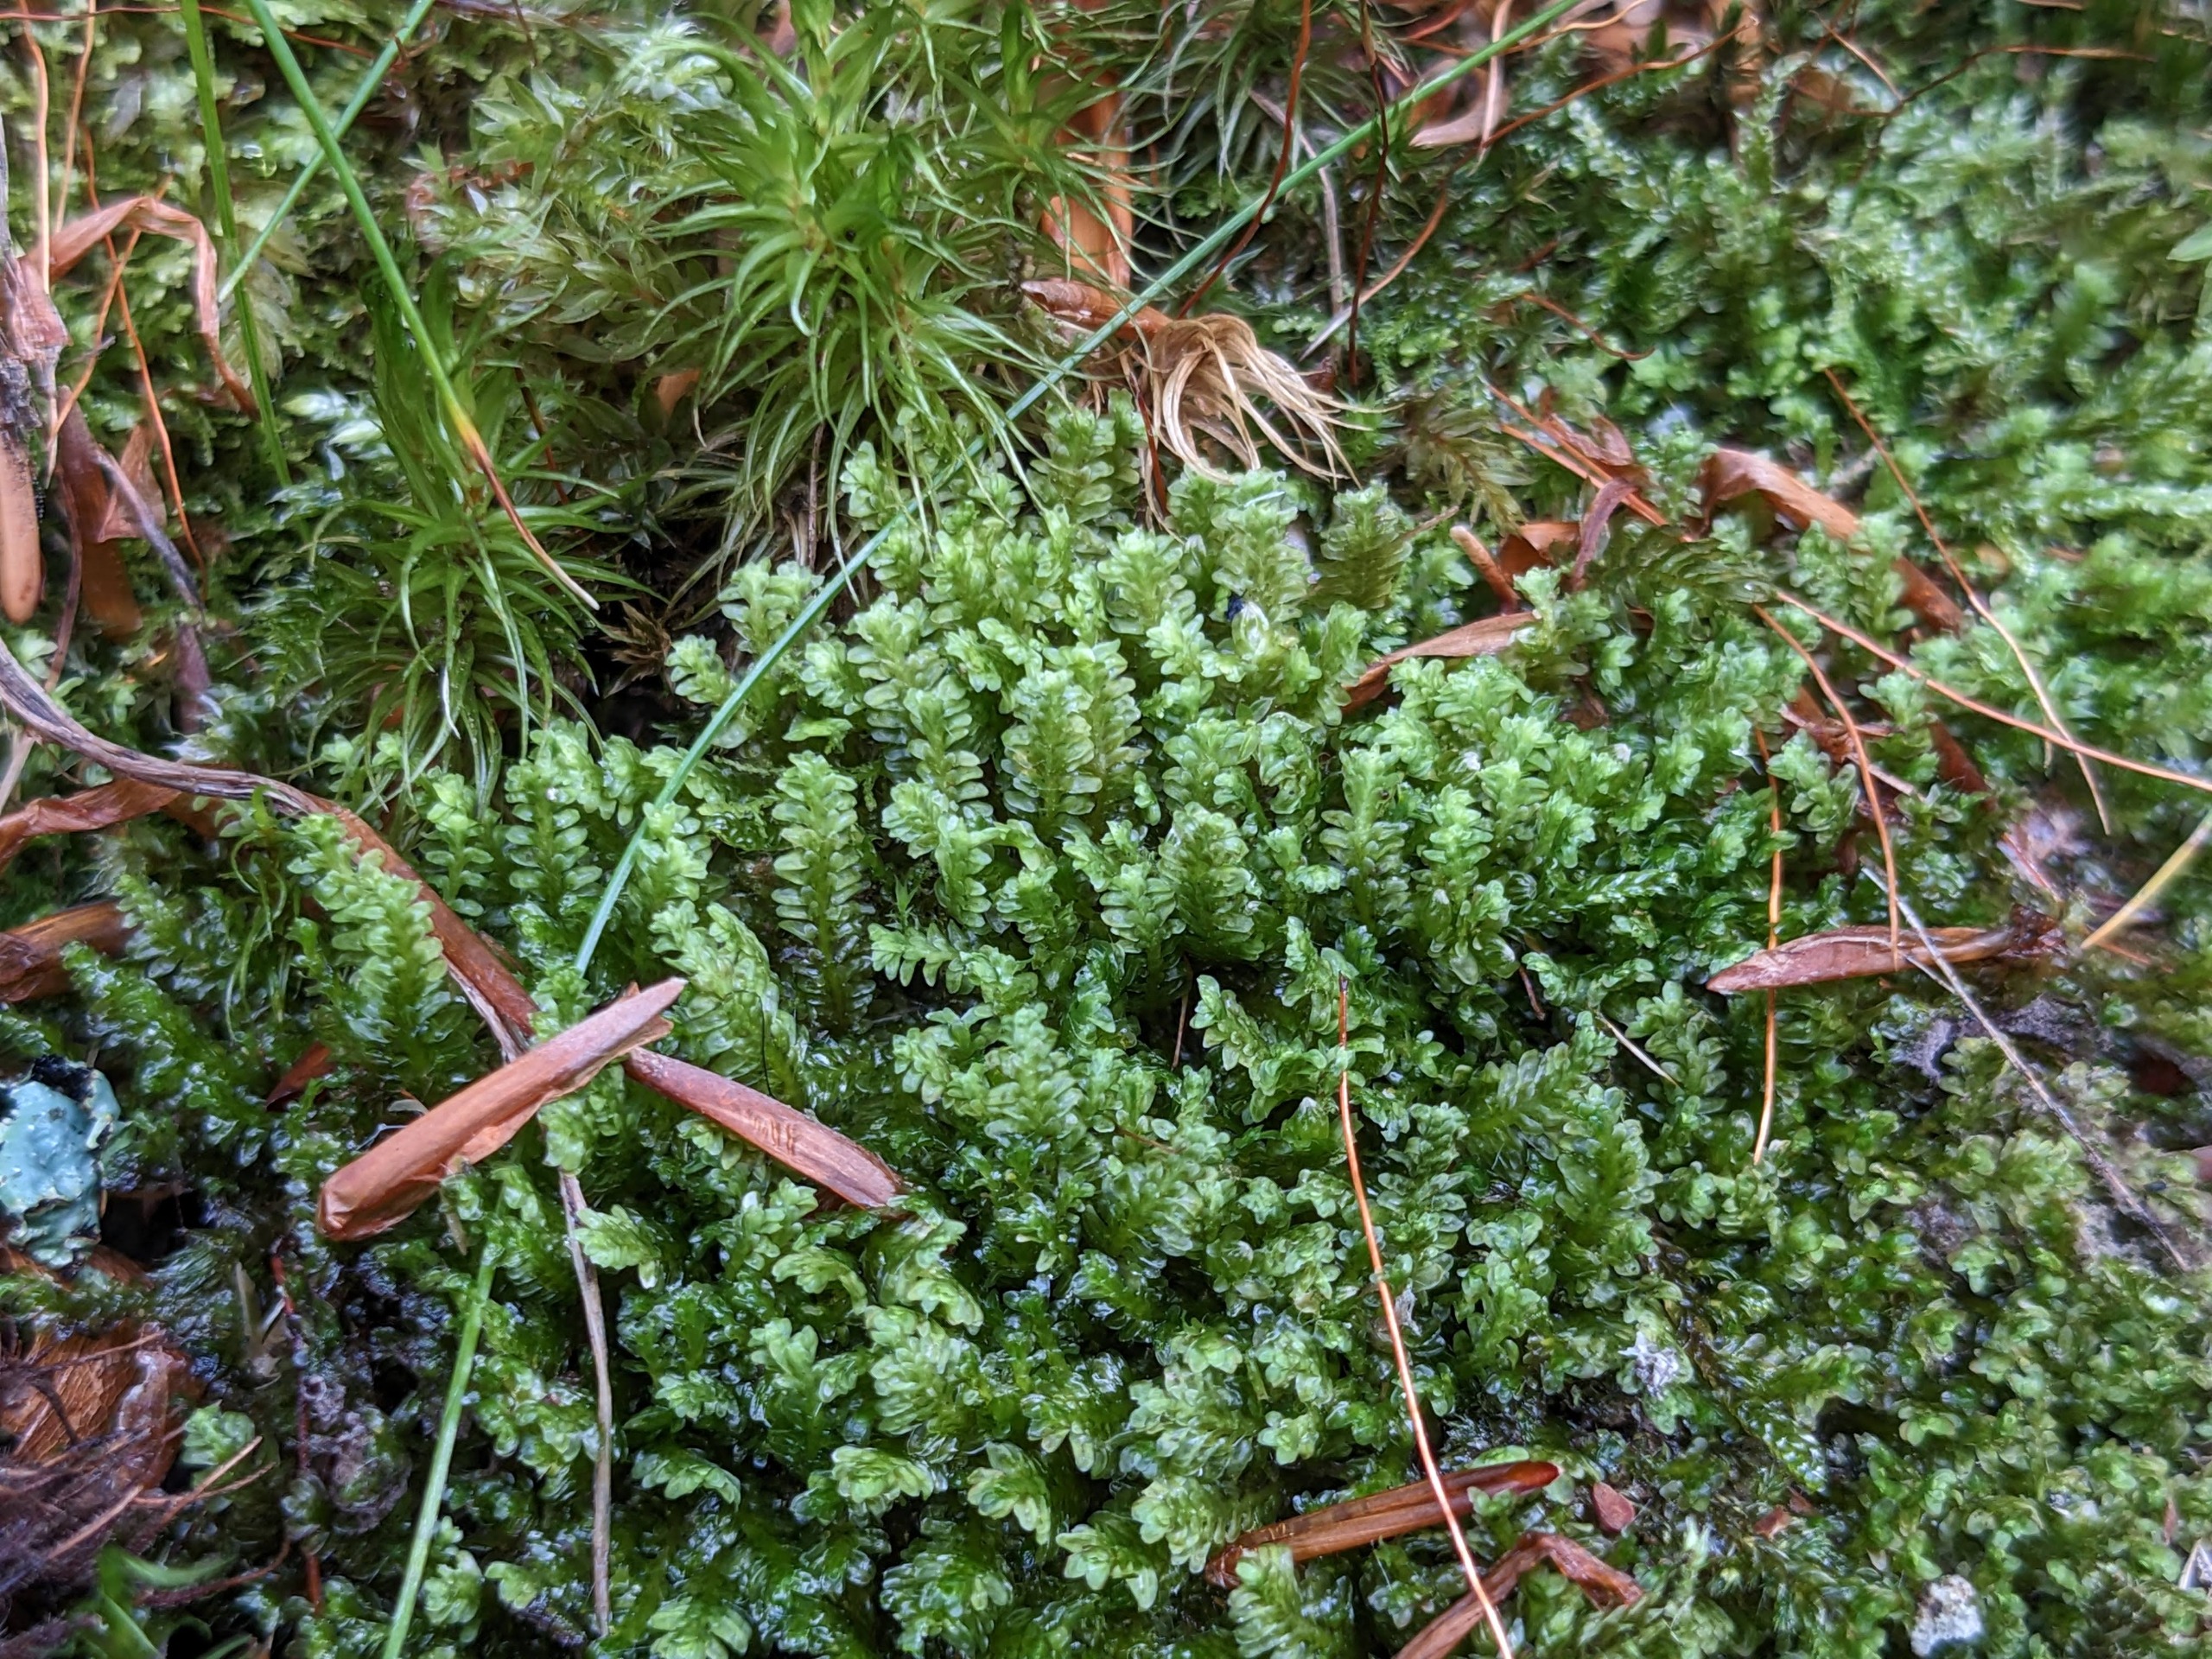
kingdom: Plantae
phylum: Marchantiophyta
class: Jungermanniopsida
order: Jungermanniales
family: Scapaniaceae
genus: Diplophyllum
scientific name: Diplophyllum albicans
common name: Stribet dobbeltblad
